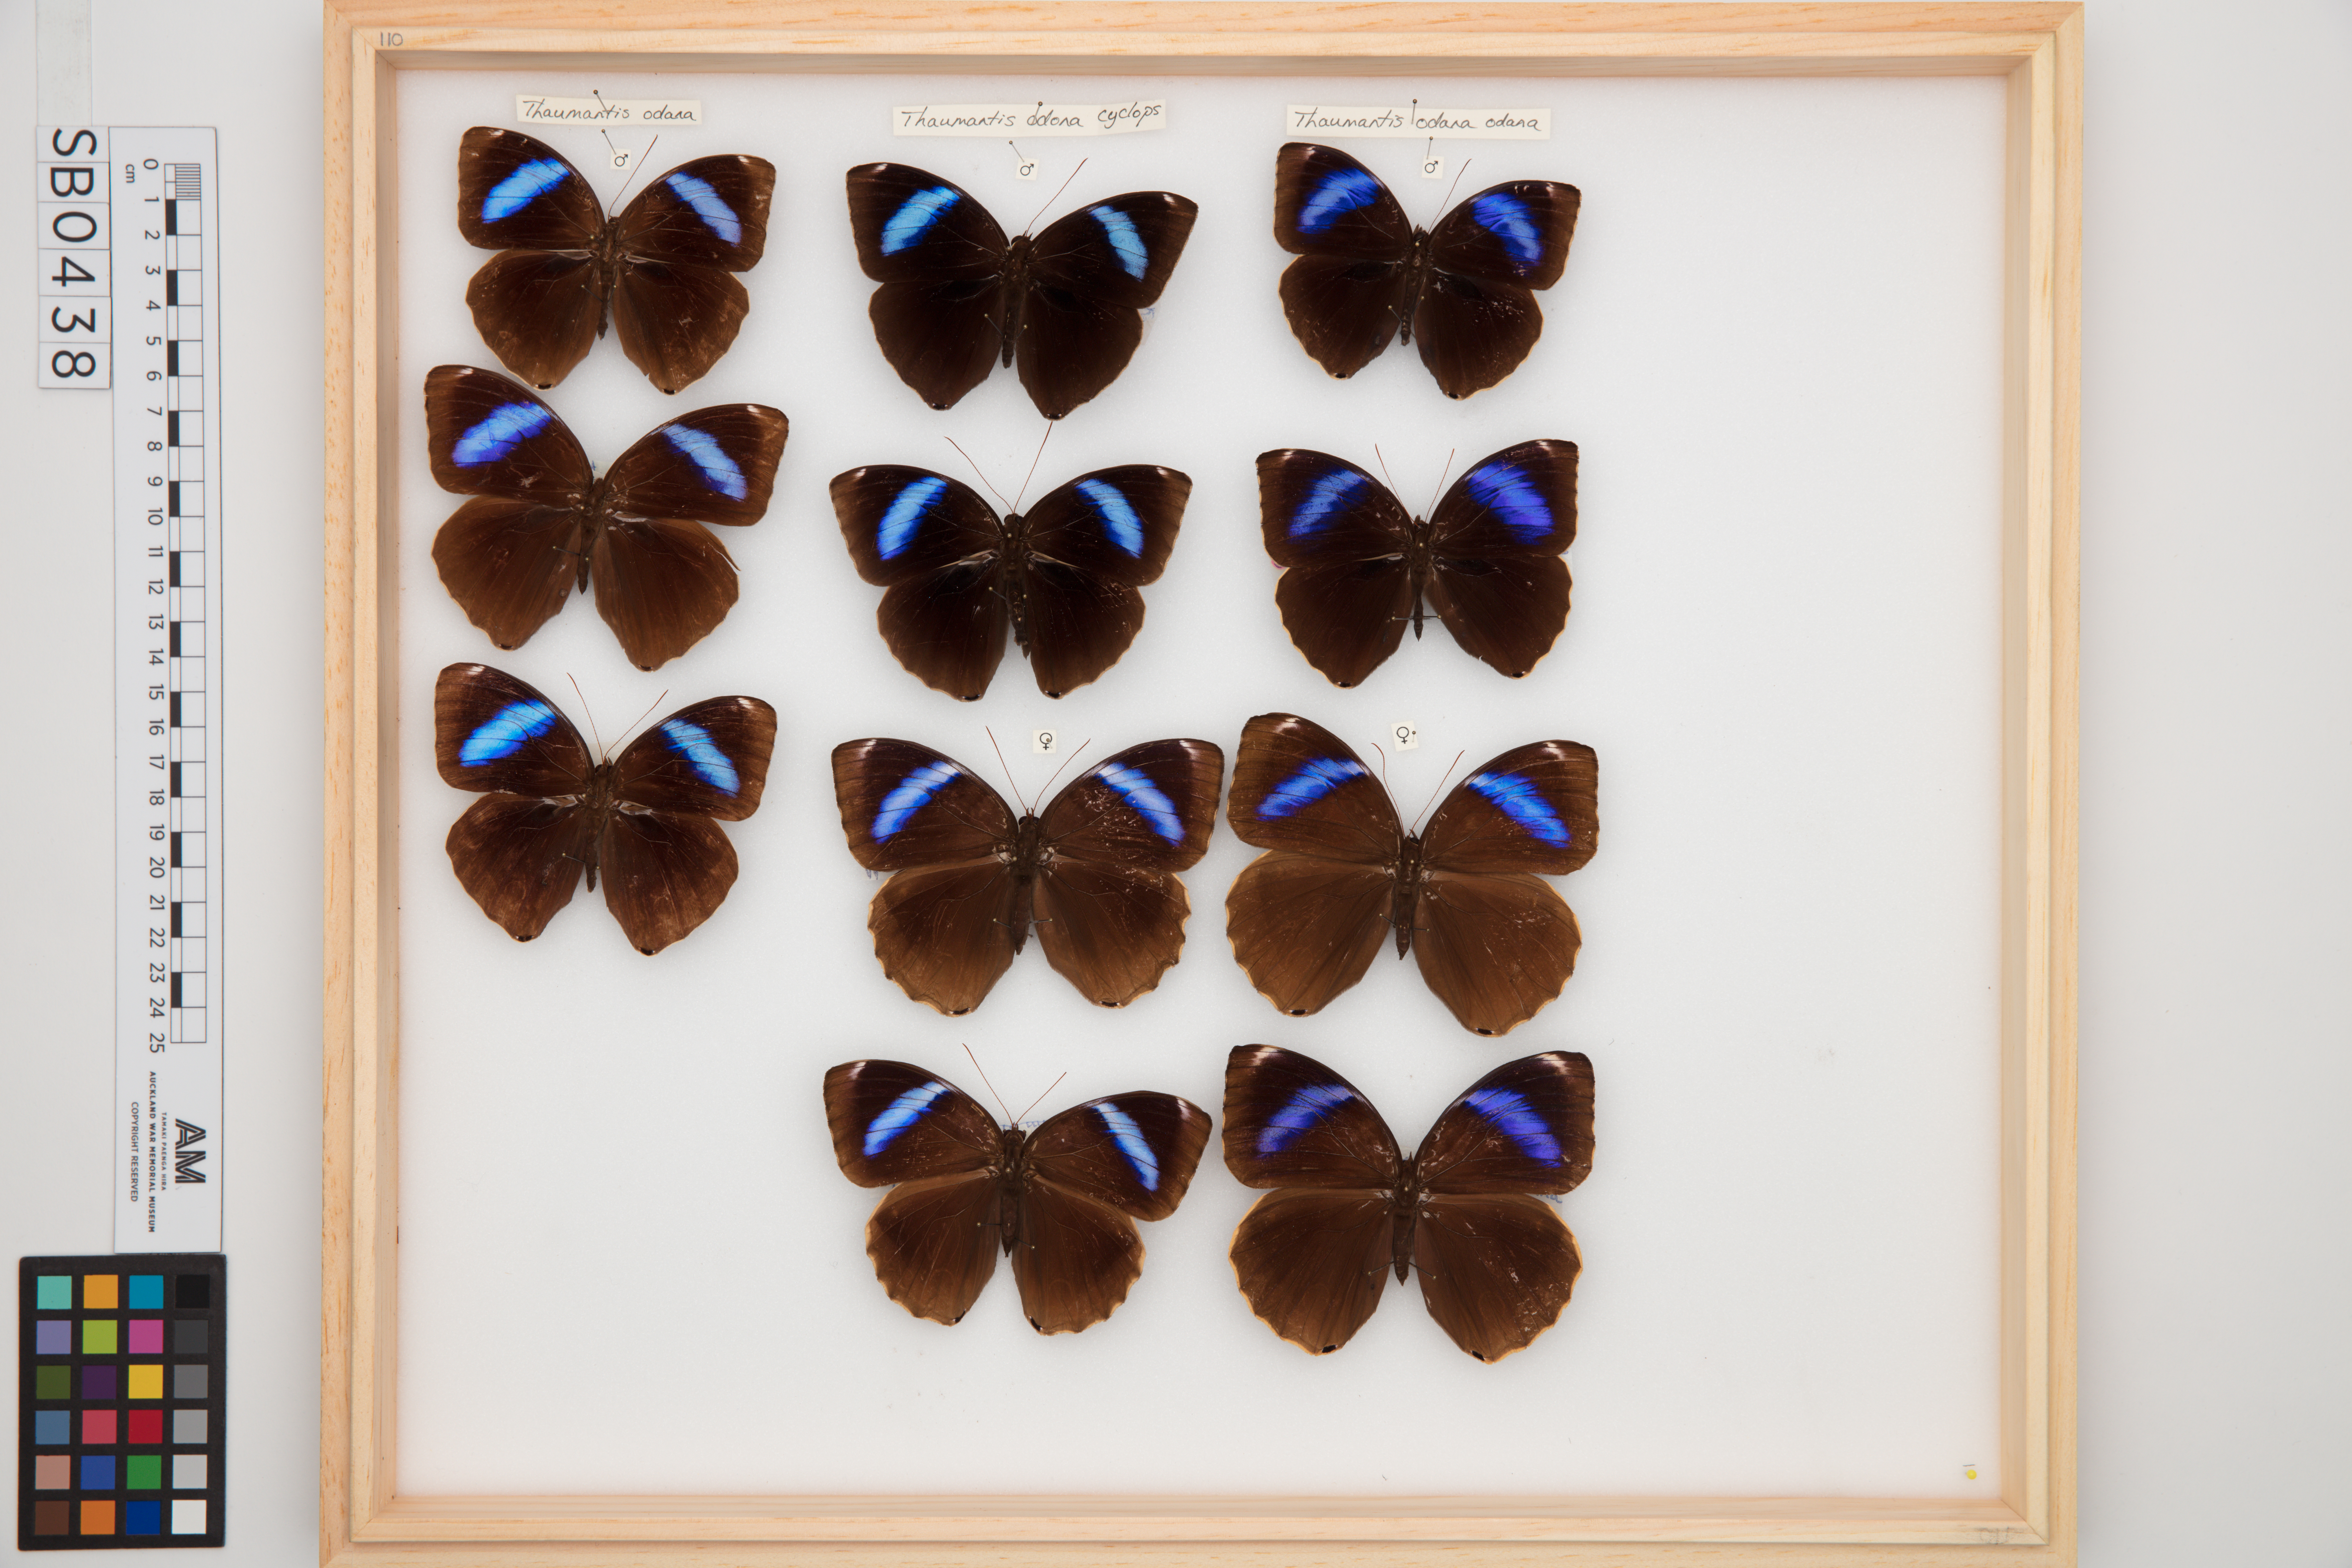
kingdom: Animalia
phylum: Arthropoda
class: Insecta
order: Lepidoptera
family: Nymphalidae
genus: Thaumantis
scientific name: Thaumantis odana
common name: Malayan jungle glory
